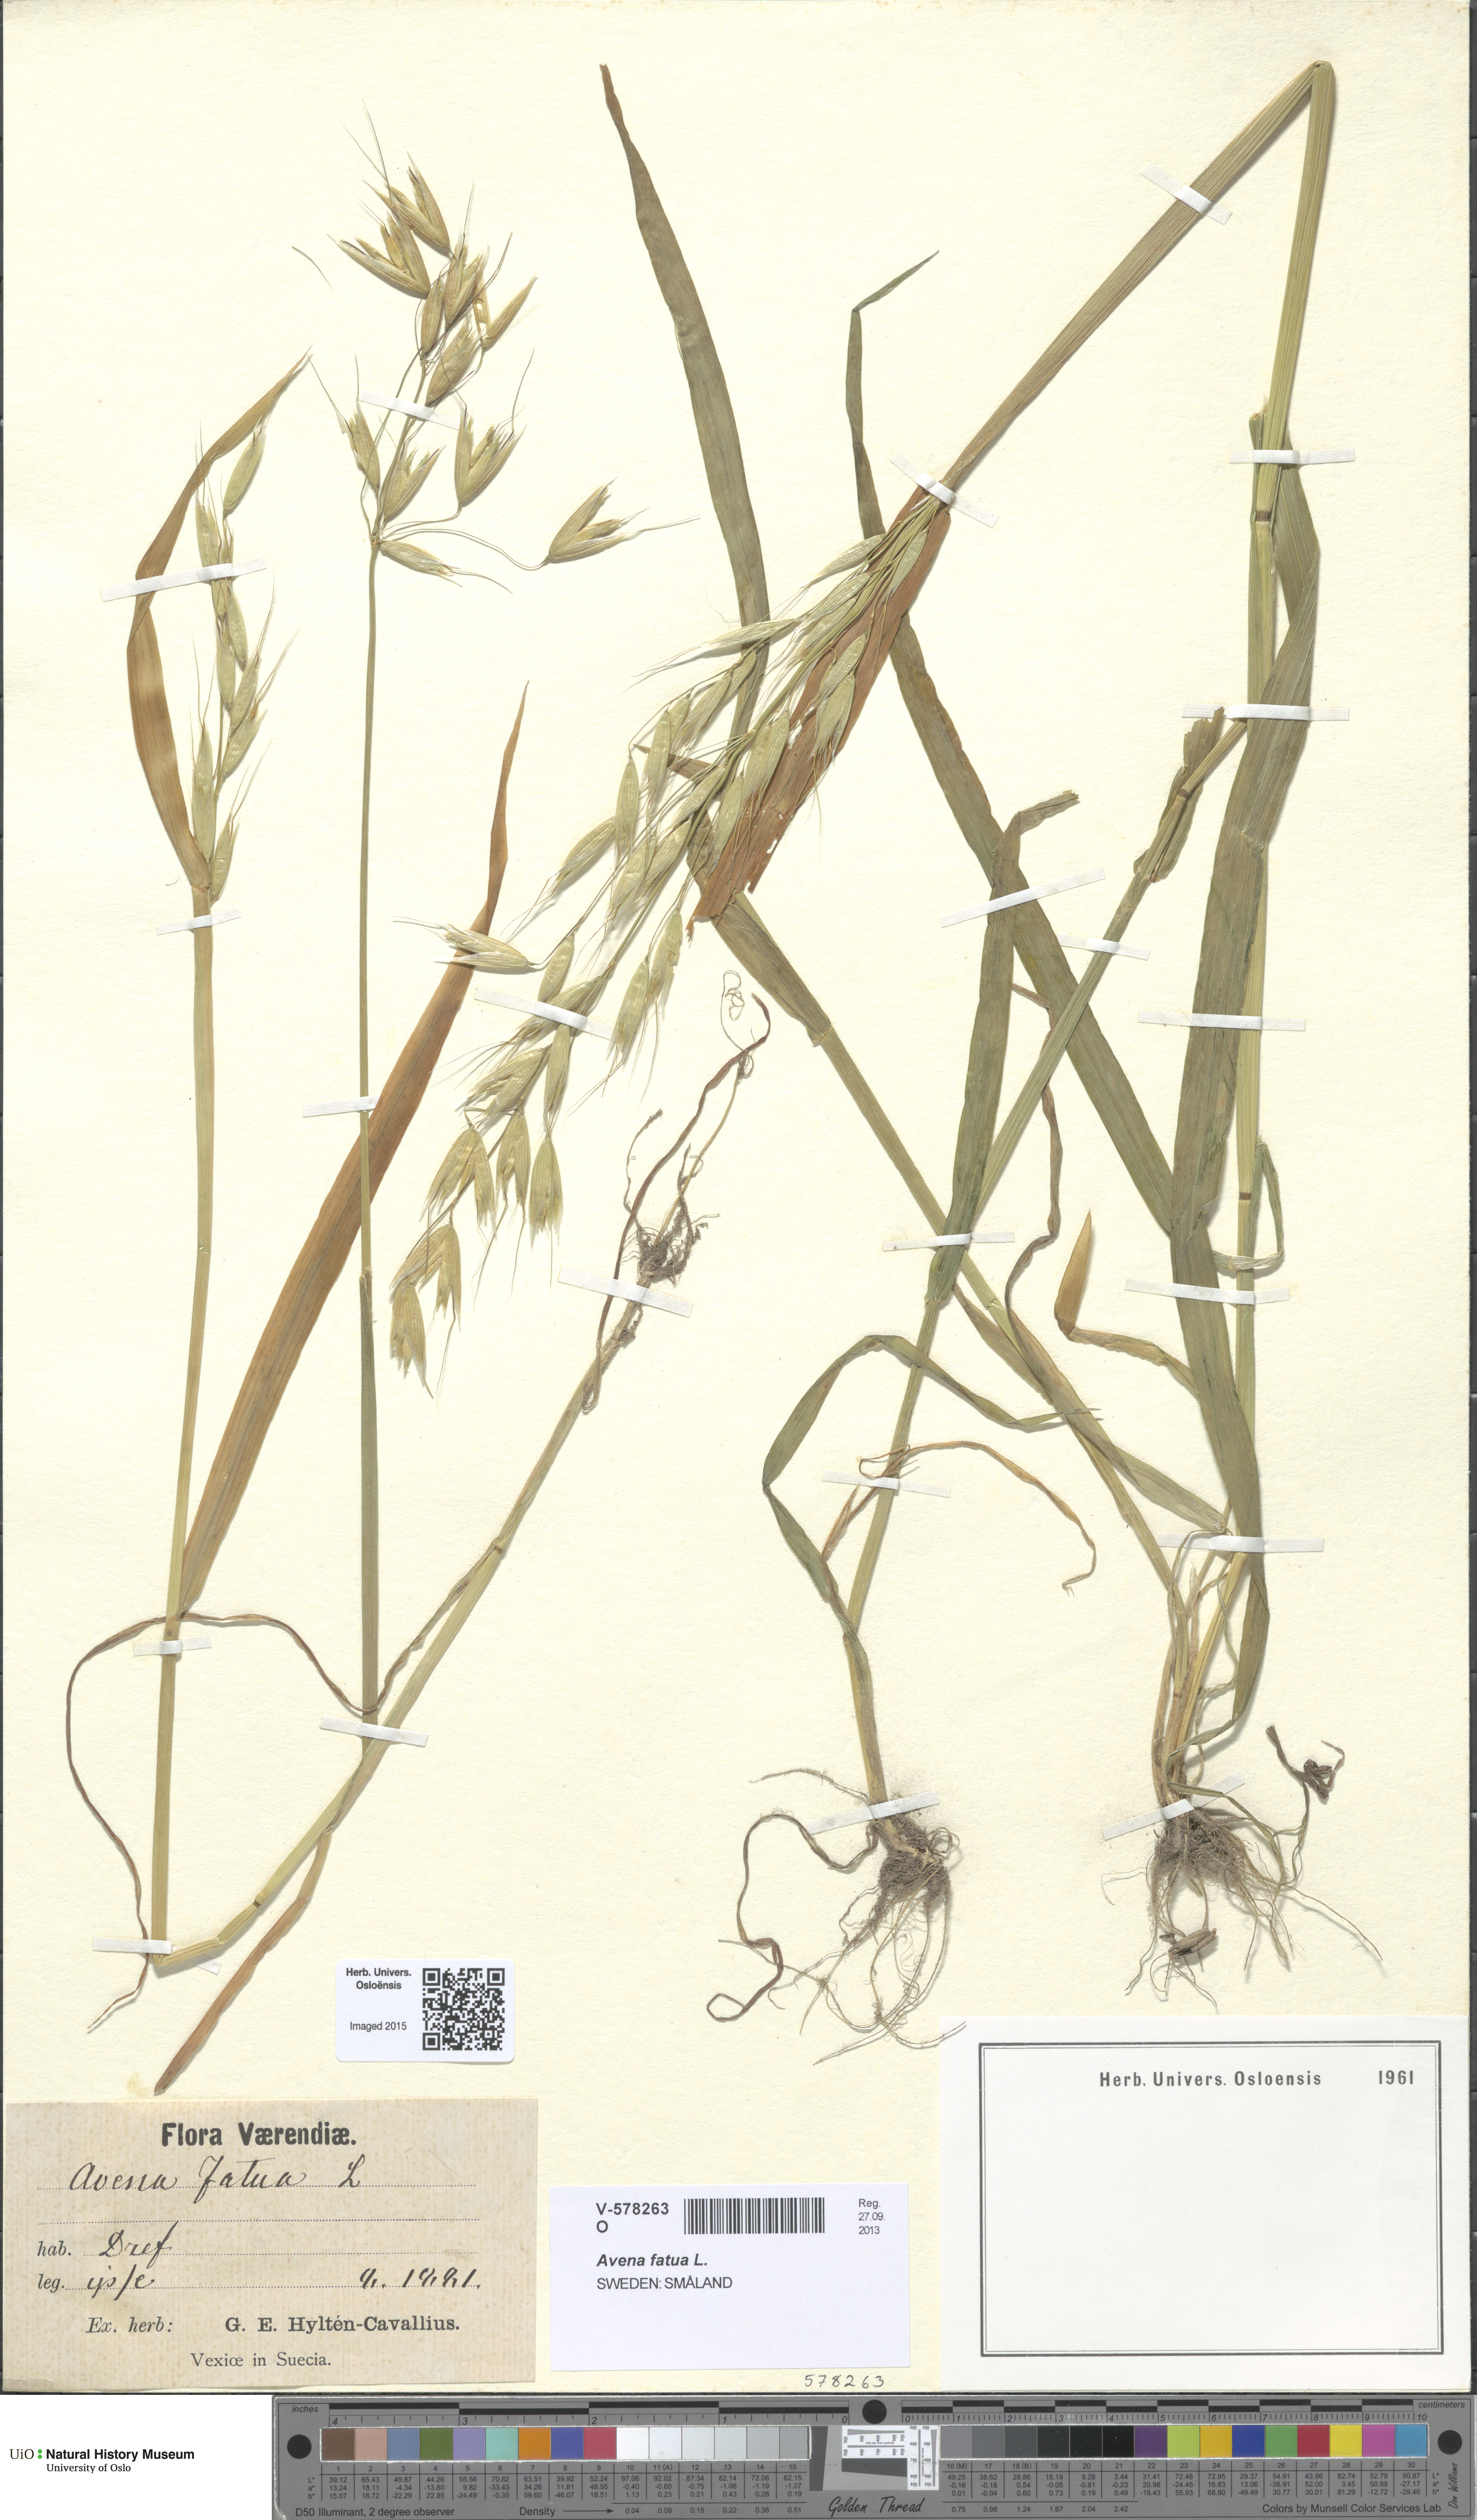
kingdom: Plantae
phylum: Tracheophyta
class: Liliopsida
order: Poales
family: Poaceae
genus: Avena
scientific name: Avena fatua
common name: Wild oat
